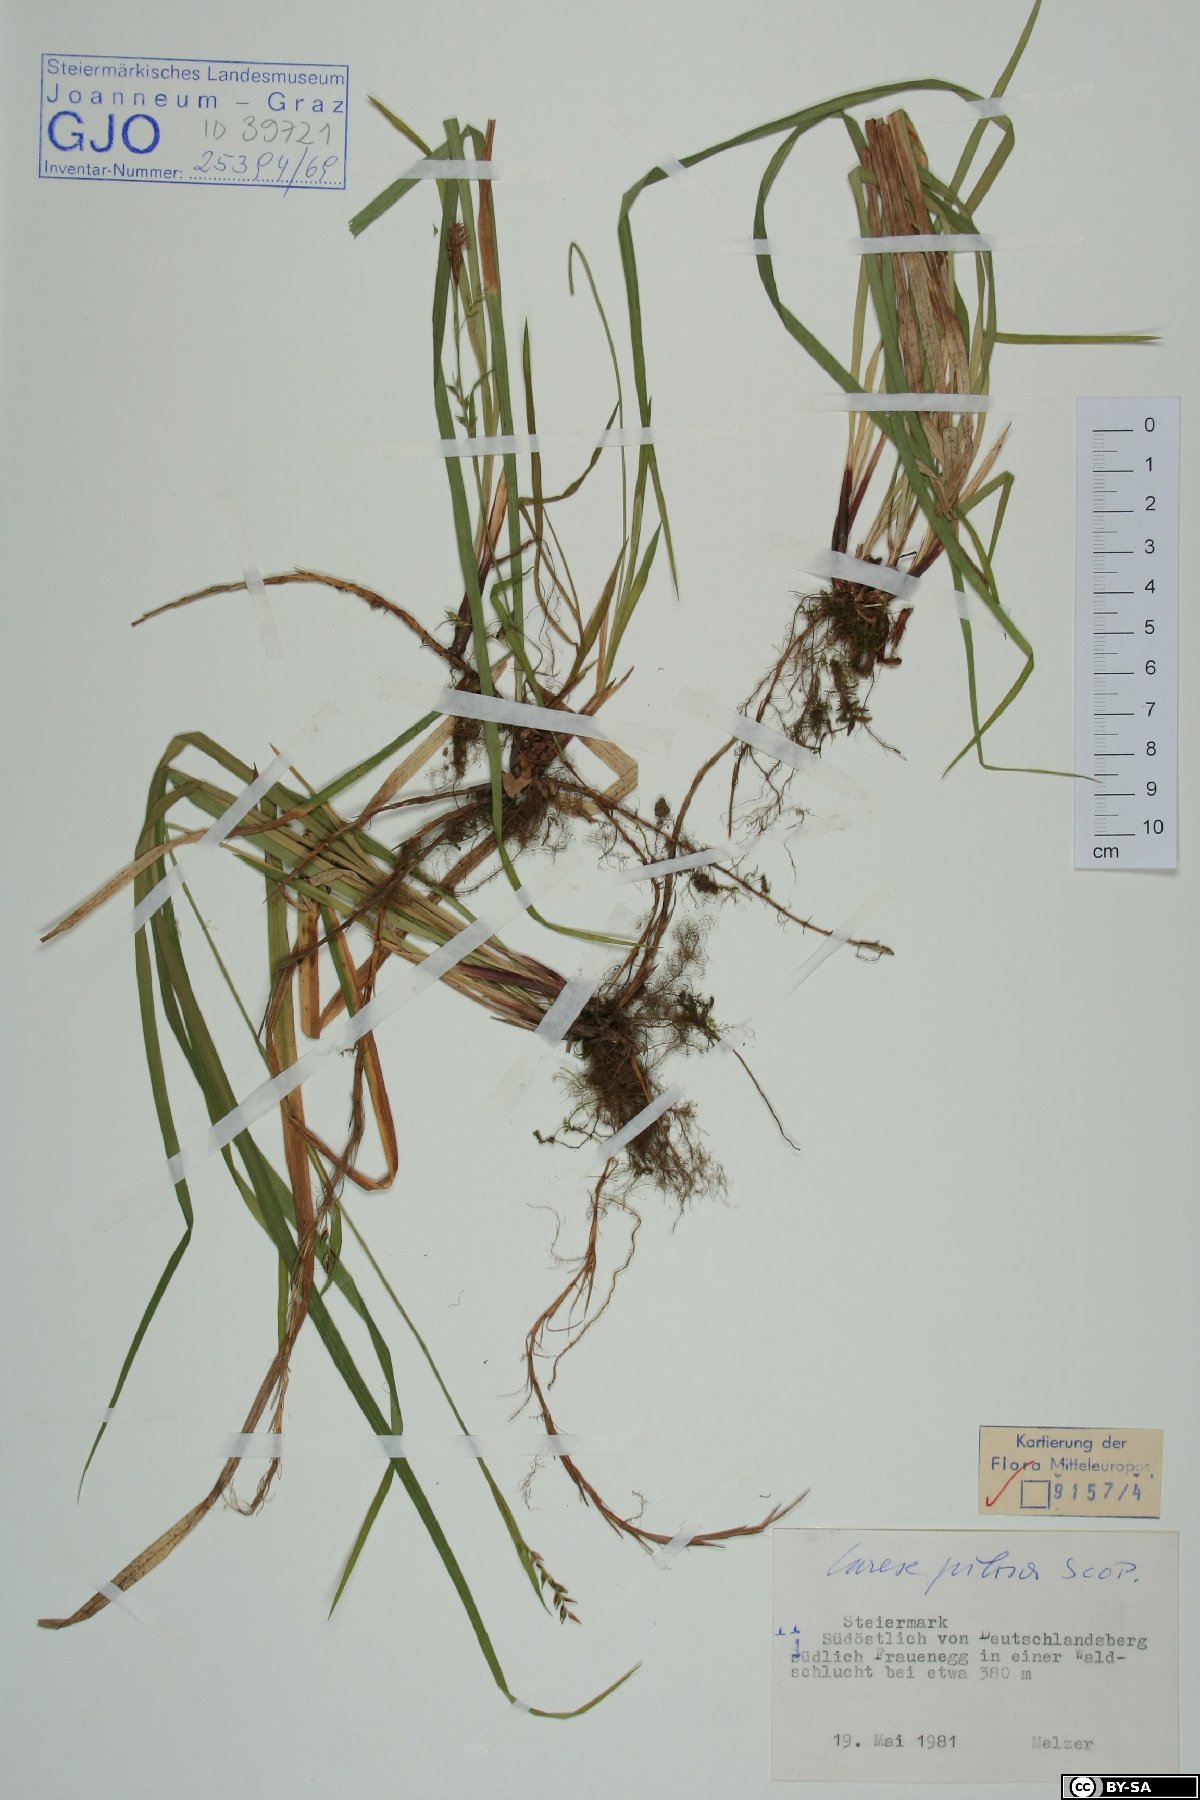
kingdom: Plantae
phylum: Tracheophyta
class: Liliopsida
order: Poales
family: Cyperaceae
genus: Carex
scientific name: Carex pilosa
